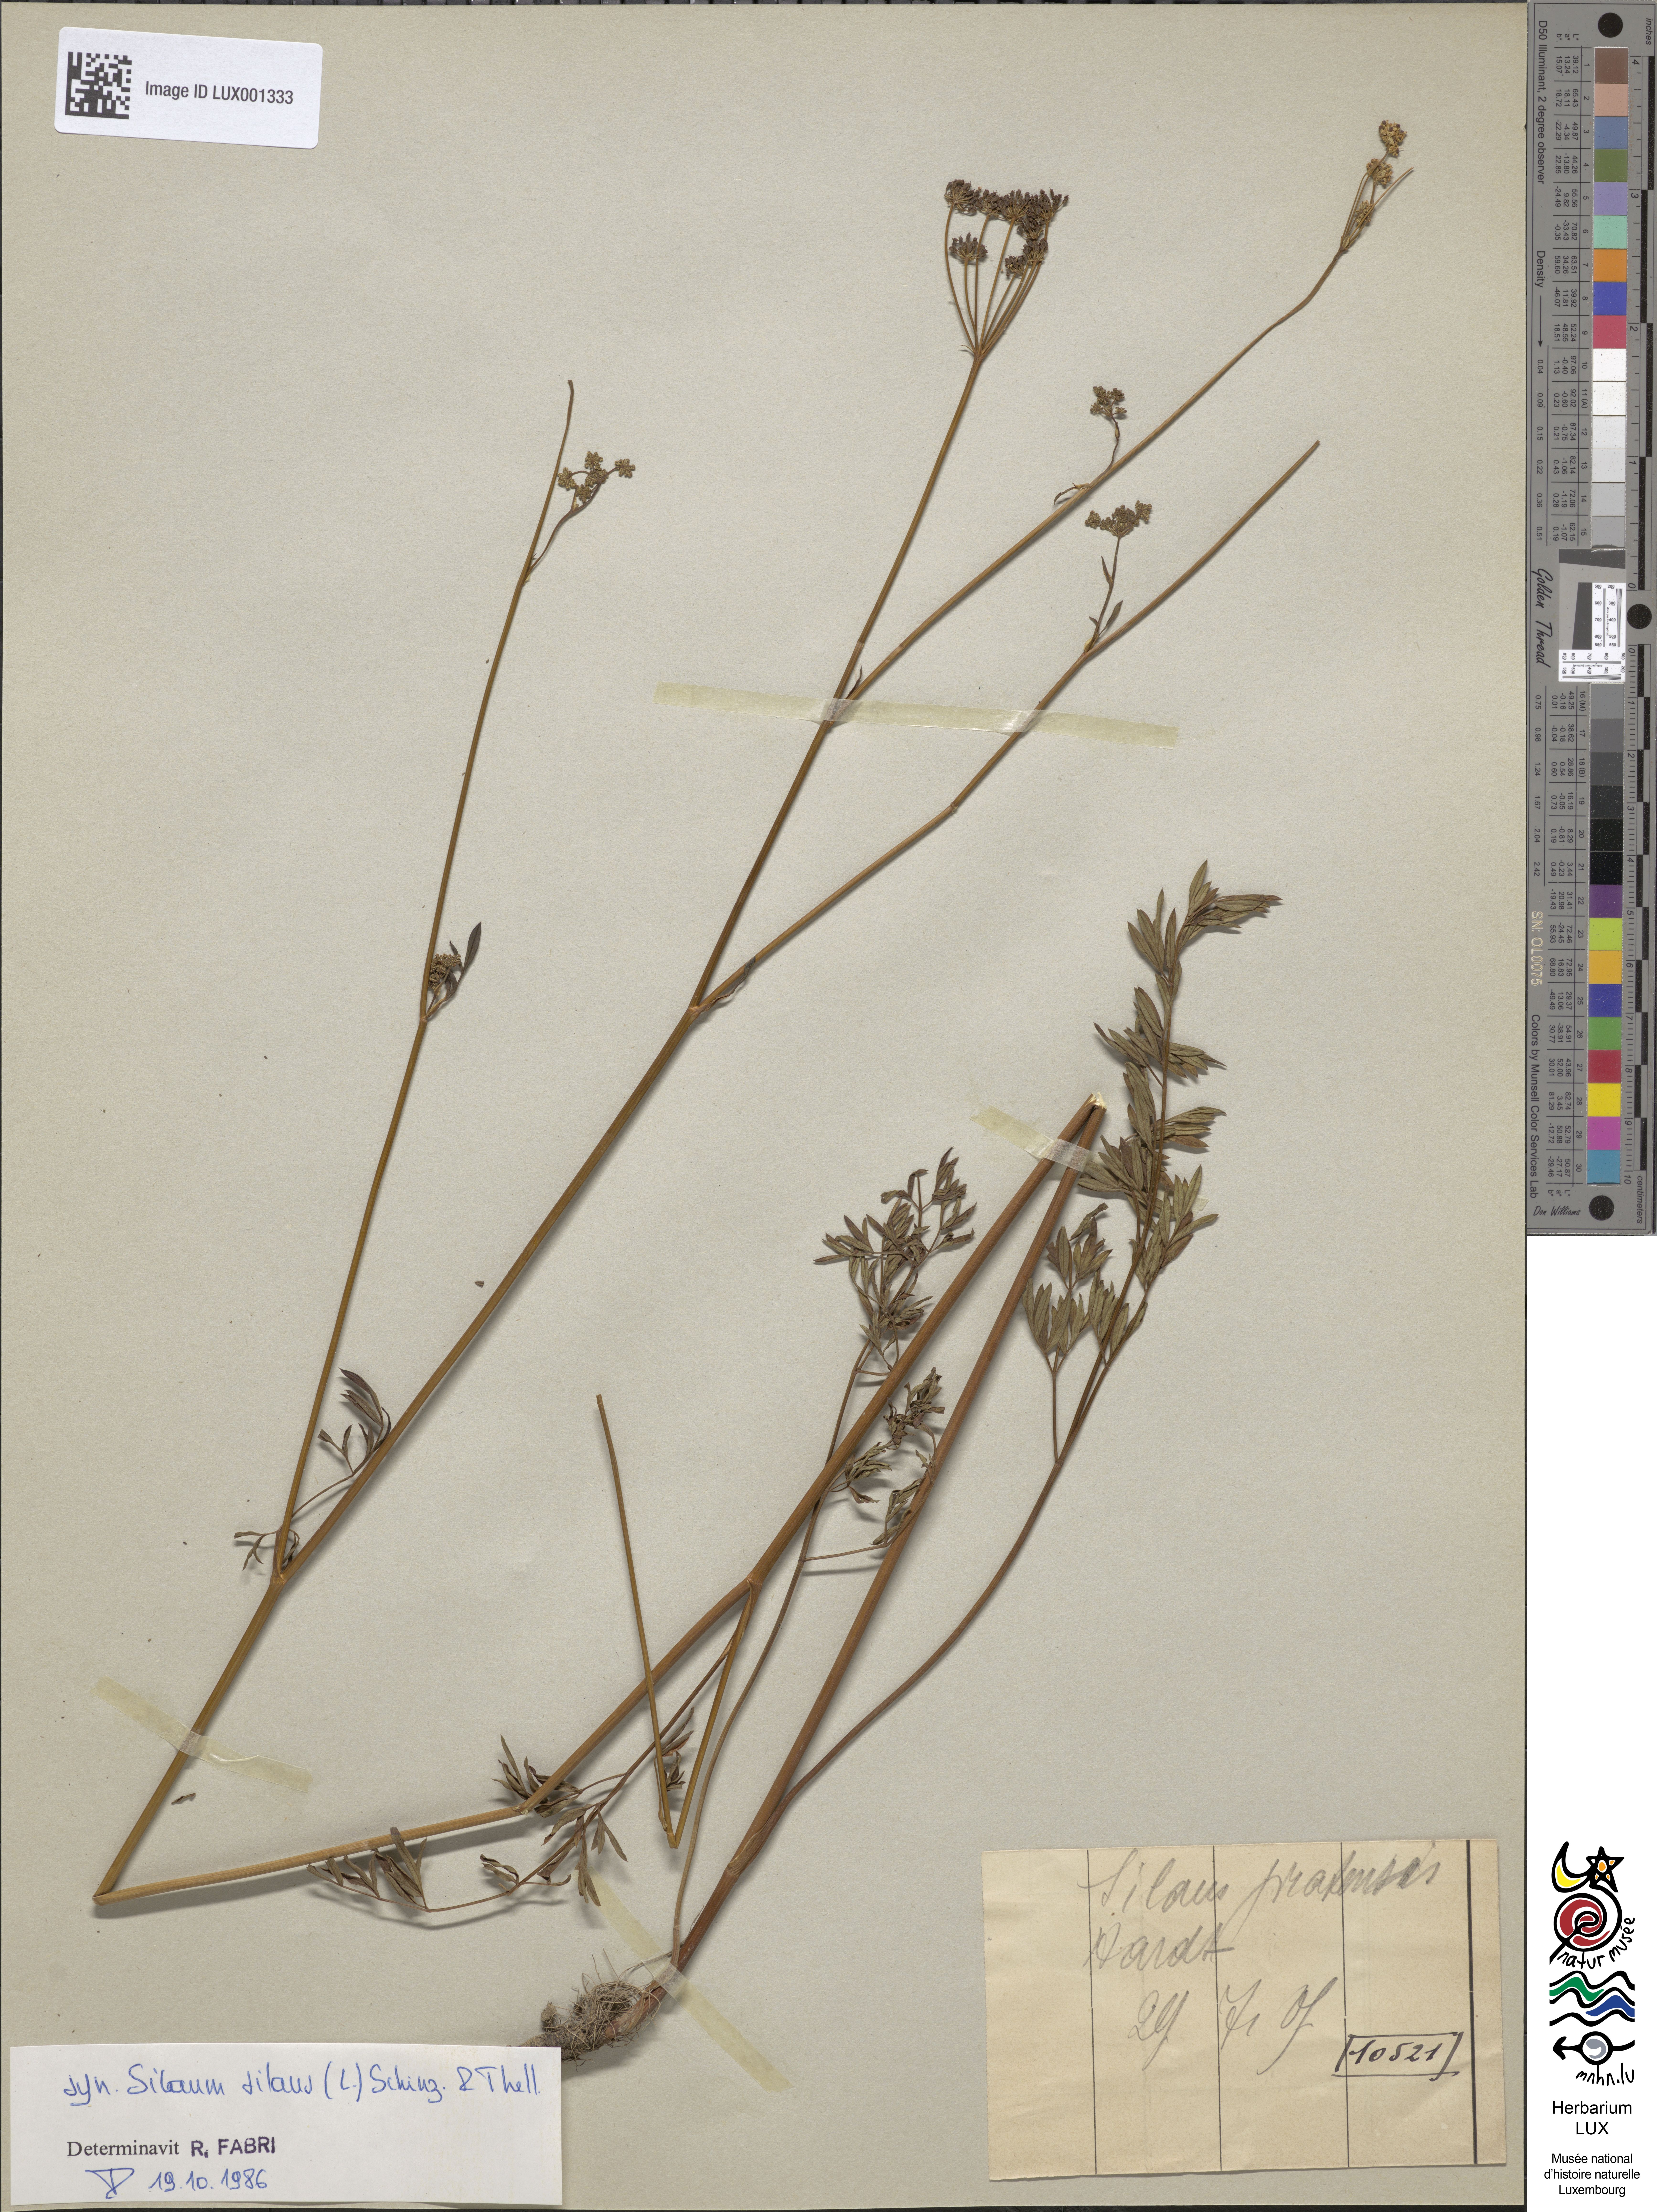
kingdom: Plantae
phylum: Tracheophyta
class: Magnoliopsida
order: Apiales
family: Apiaceae
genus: Silaum
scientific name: Silaum silaus
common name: Pepper-saxifrage
